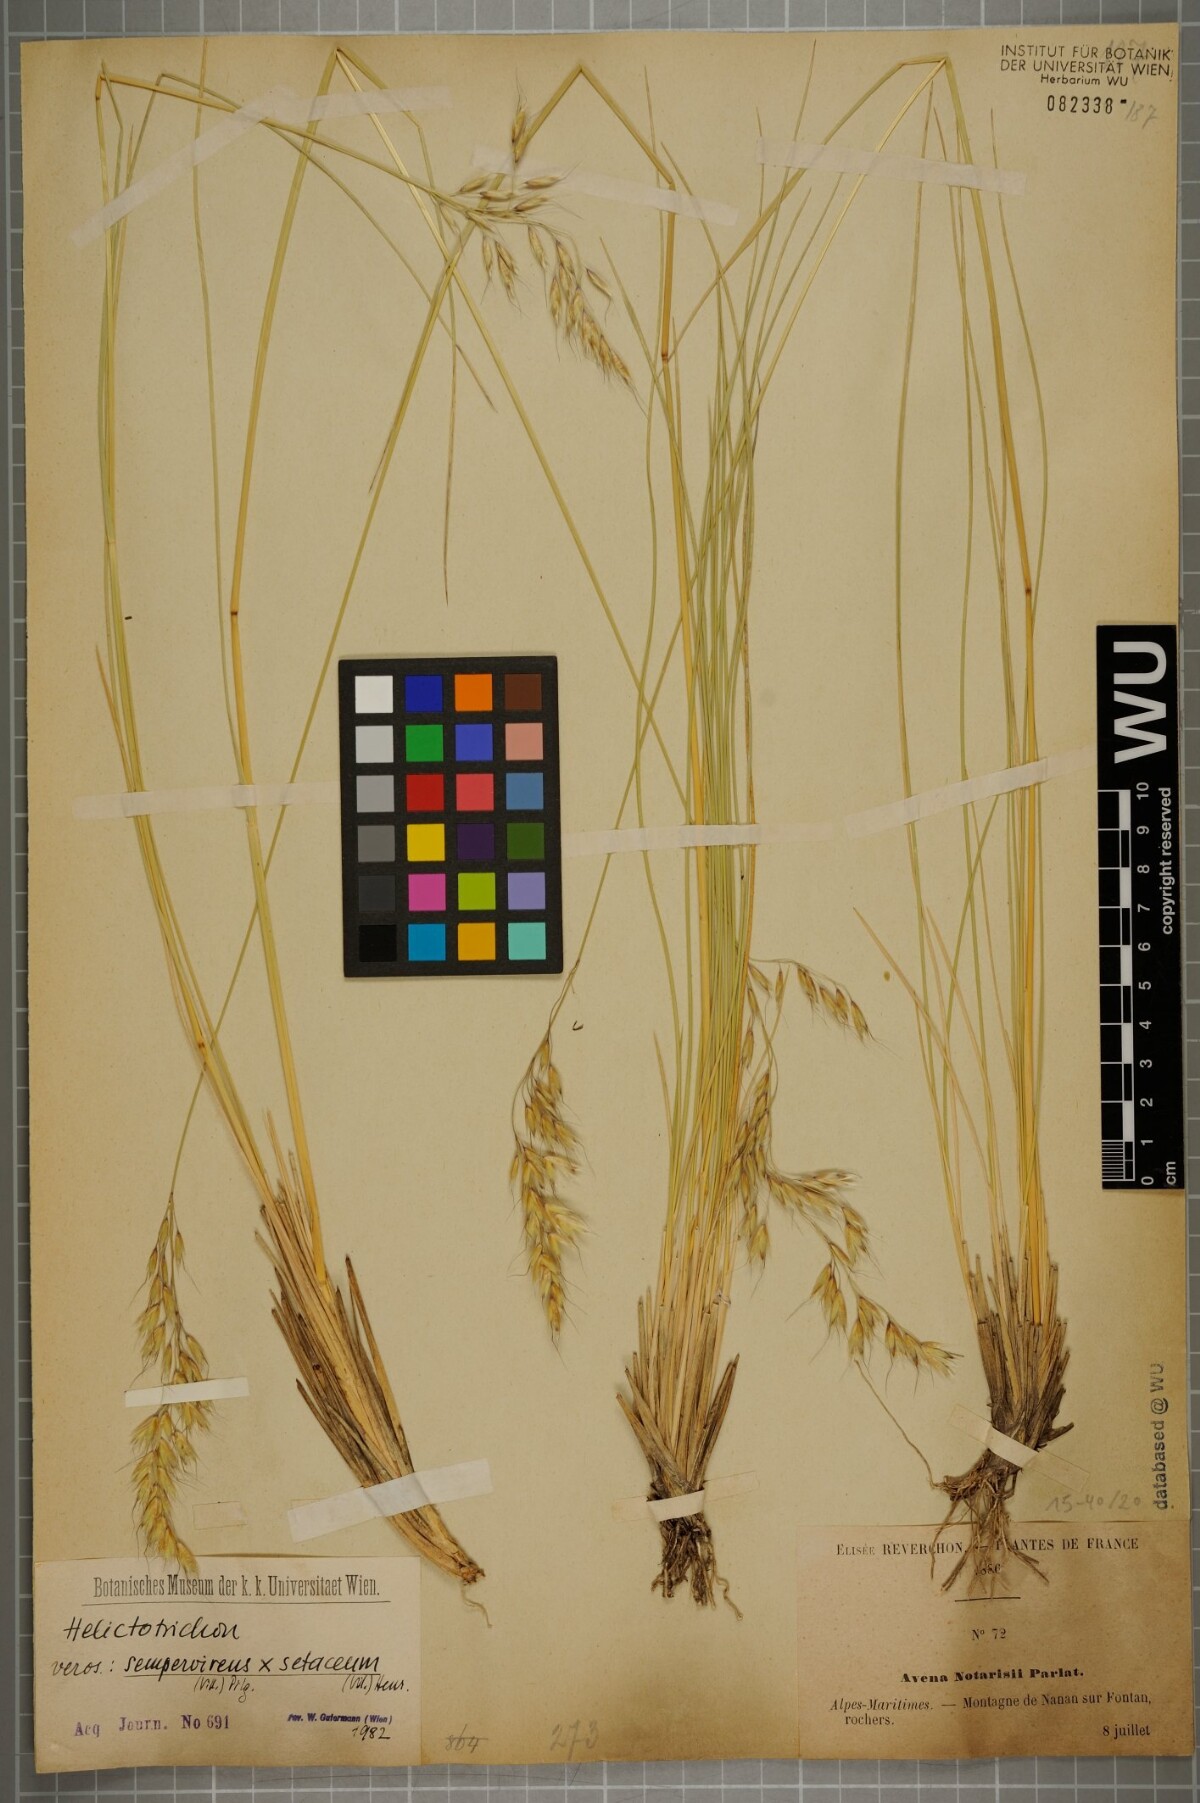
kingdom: Plantae
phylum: Tracheophyta
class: Liliopsida
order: Poales
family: Poaceae
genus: Helictotrichon
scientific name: Helictotrichon
